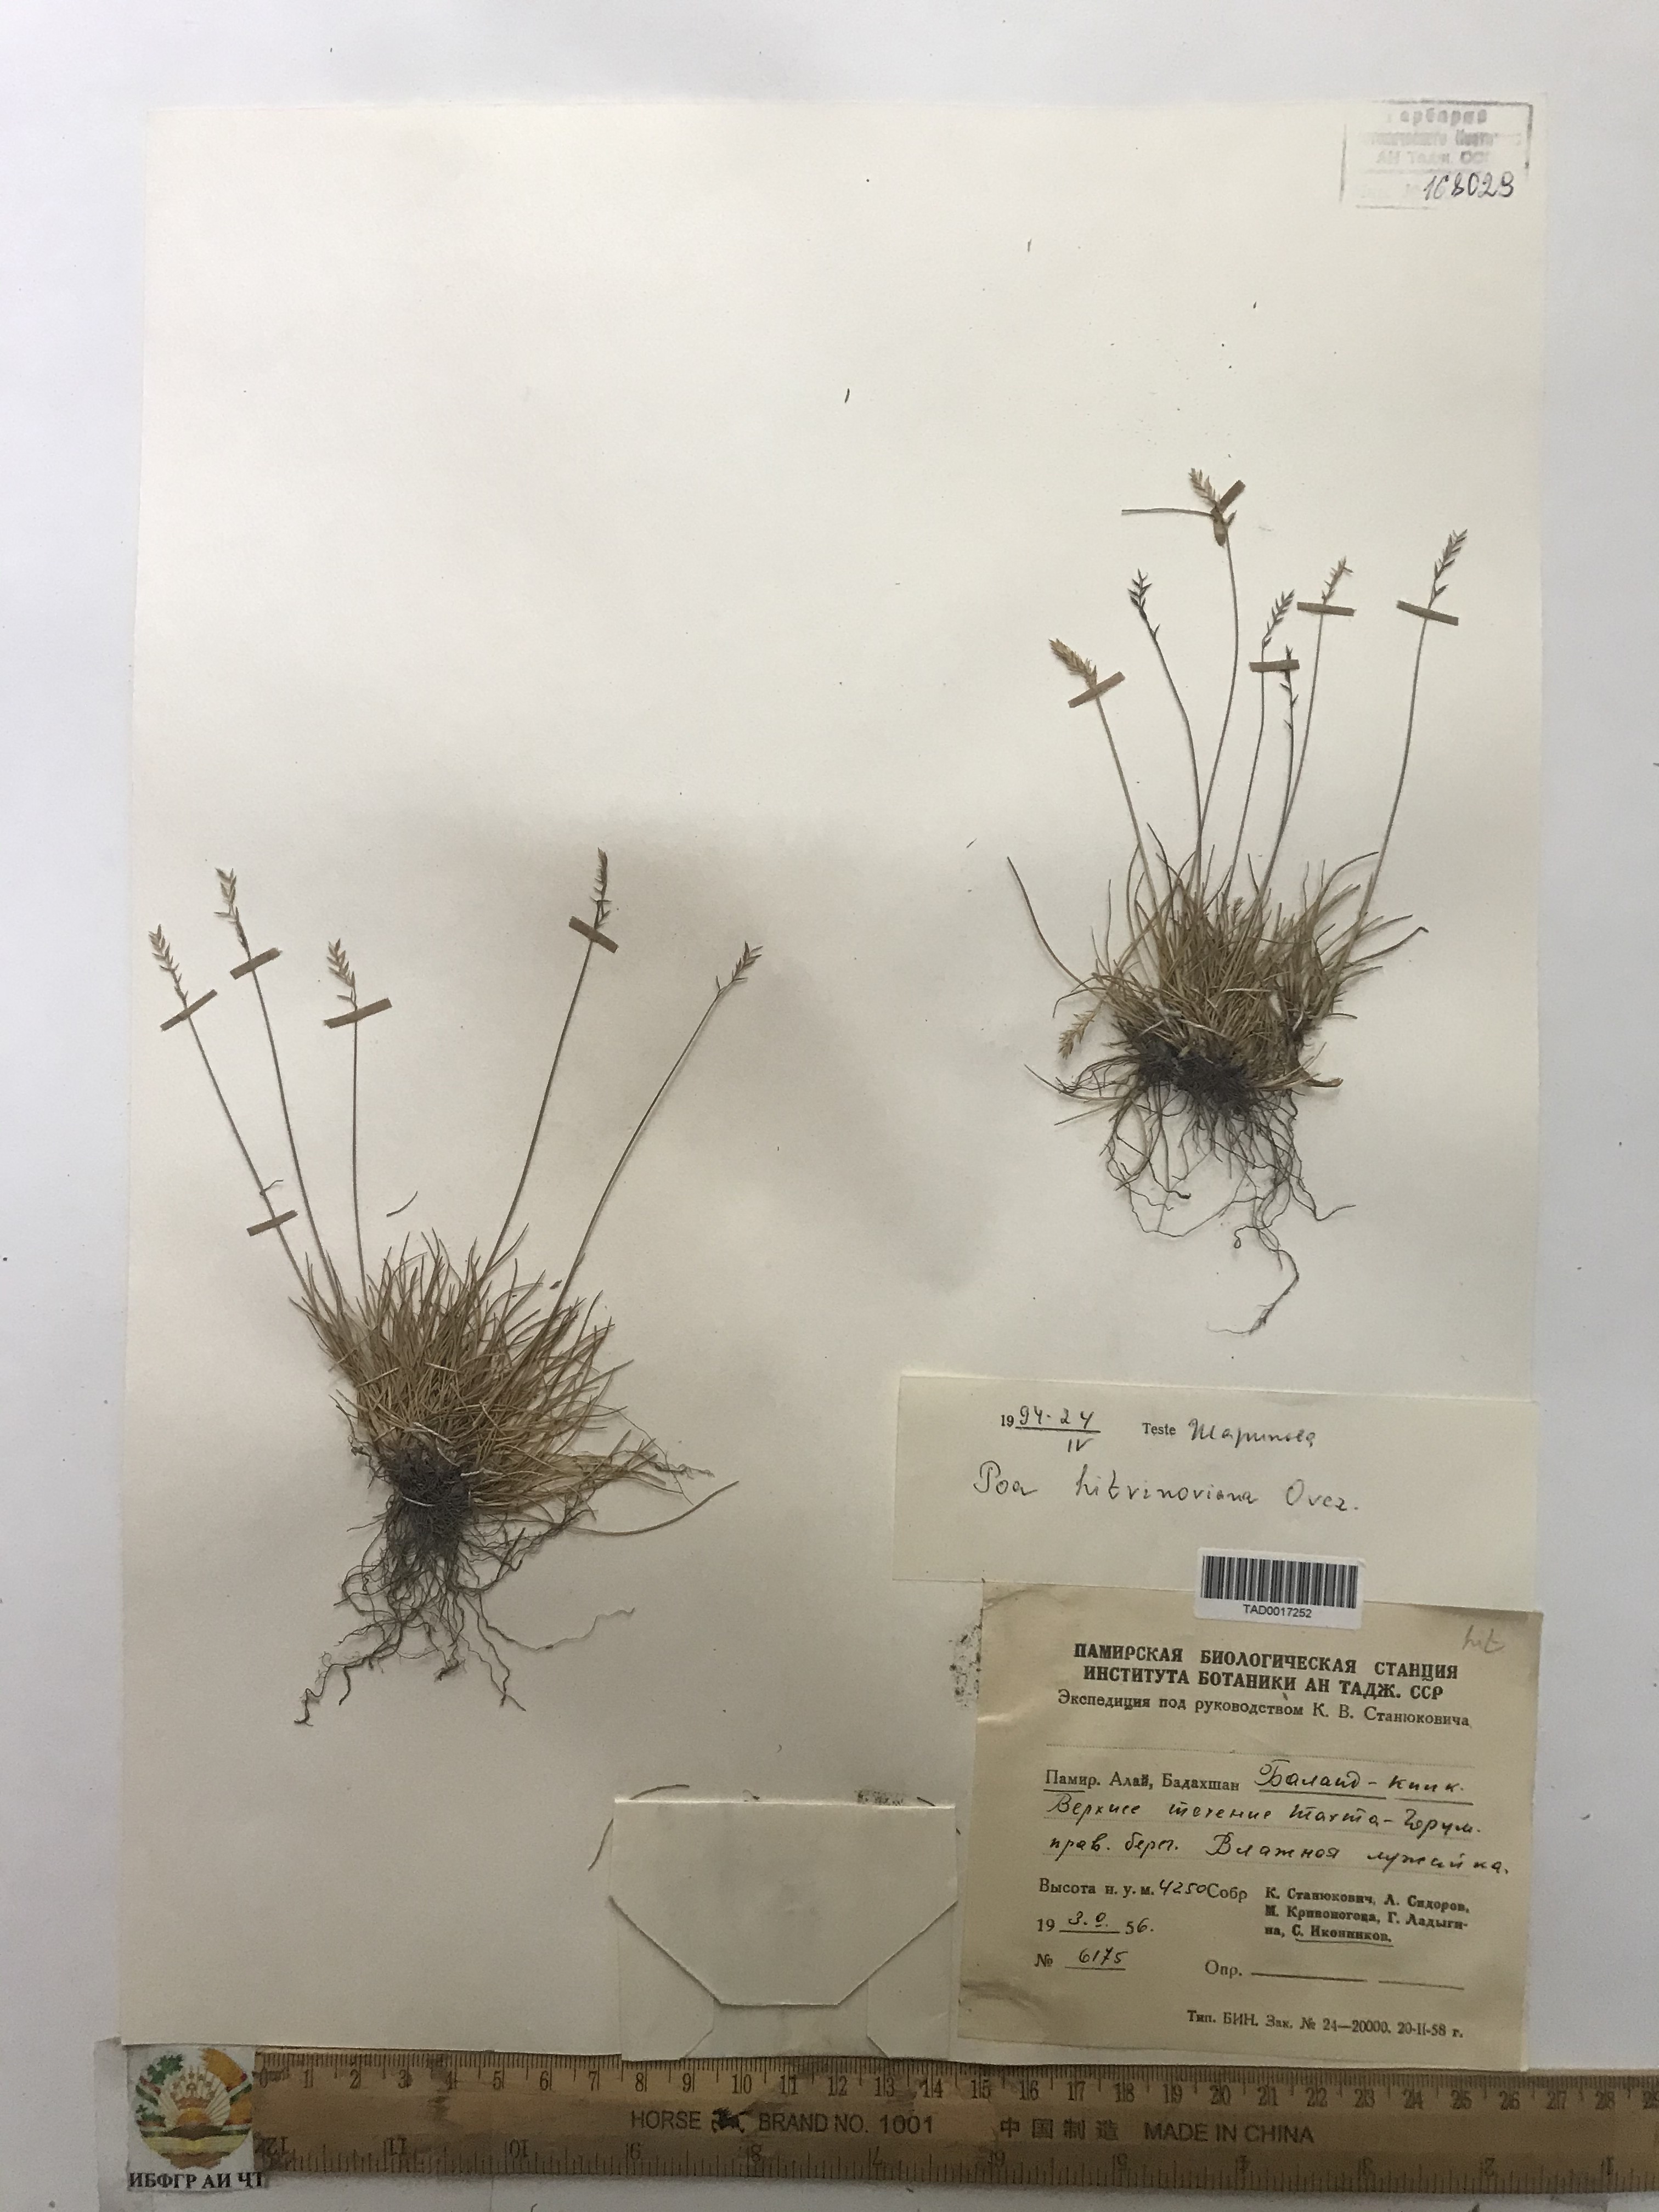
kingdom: Plantae
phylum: Tracheophyta
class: Liliopsida
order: Poales
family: Poaceae
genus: Poa
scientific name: Poa glauca
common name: Glaucous bluegrass
